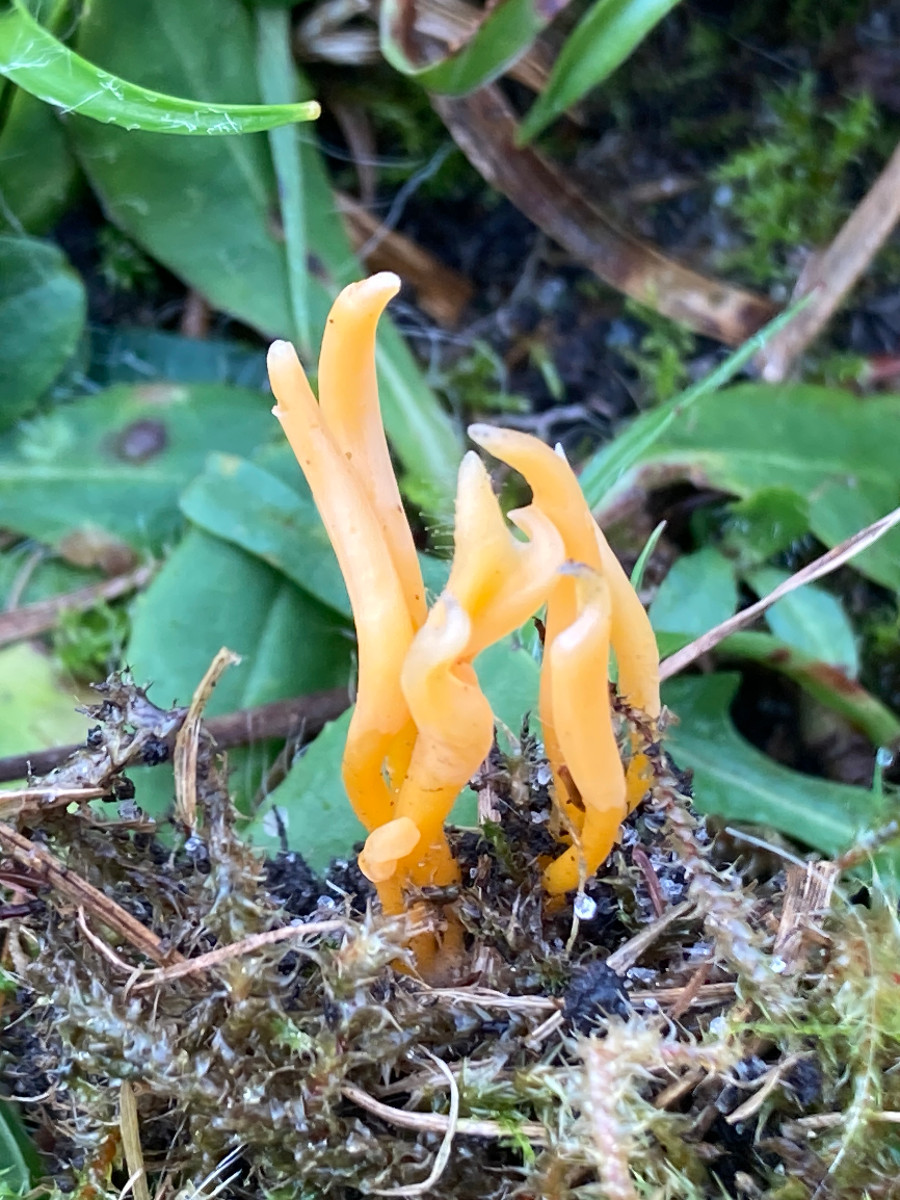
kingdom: Fungi
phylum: Basidiomycota
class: Agaricomycetes
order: Agaricales
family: Clavariaceae
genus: Clavulinopsis
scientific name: Clavulinopsis
